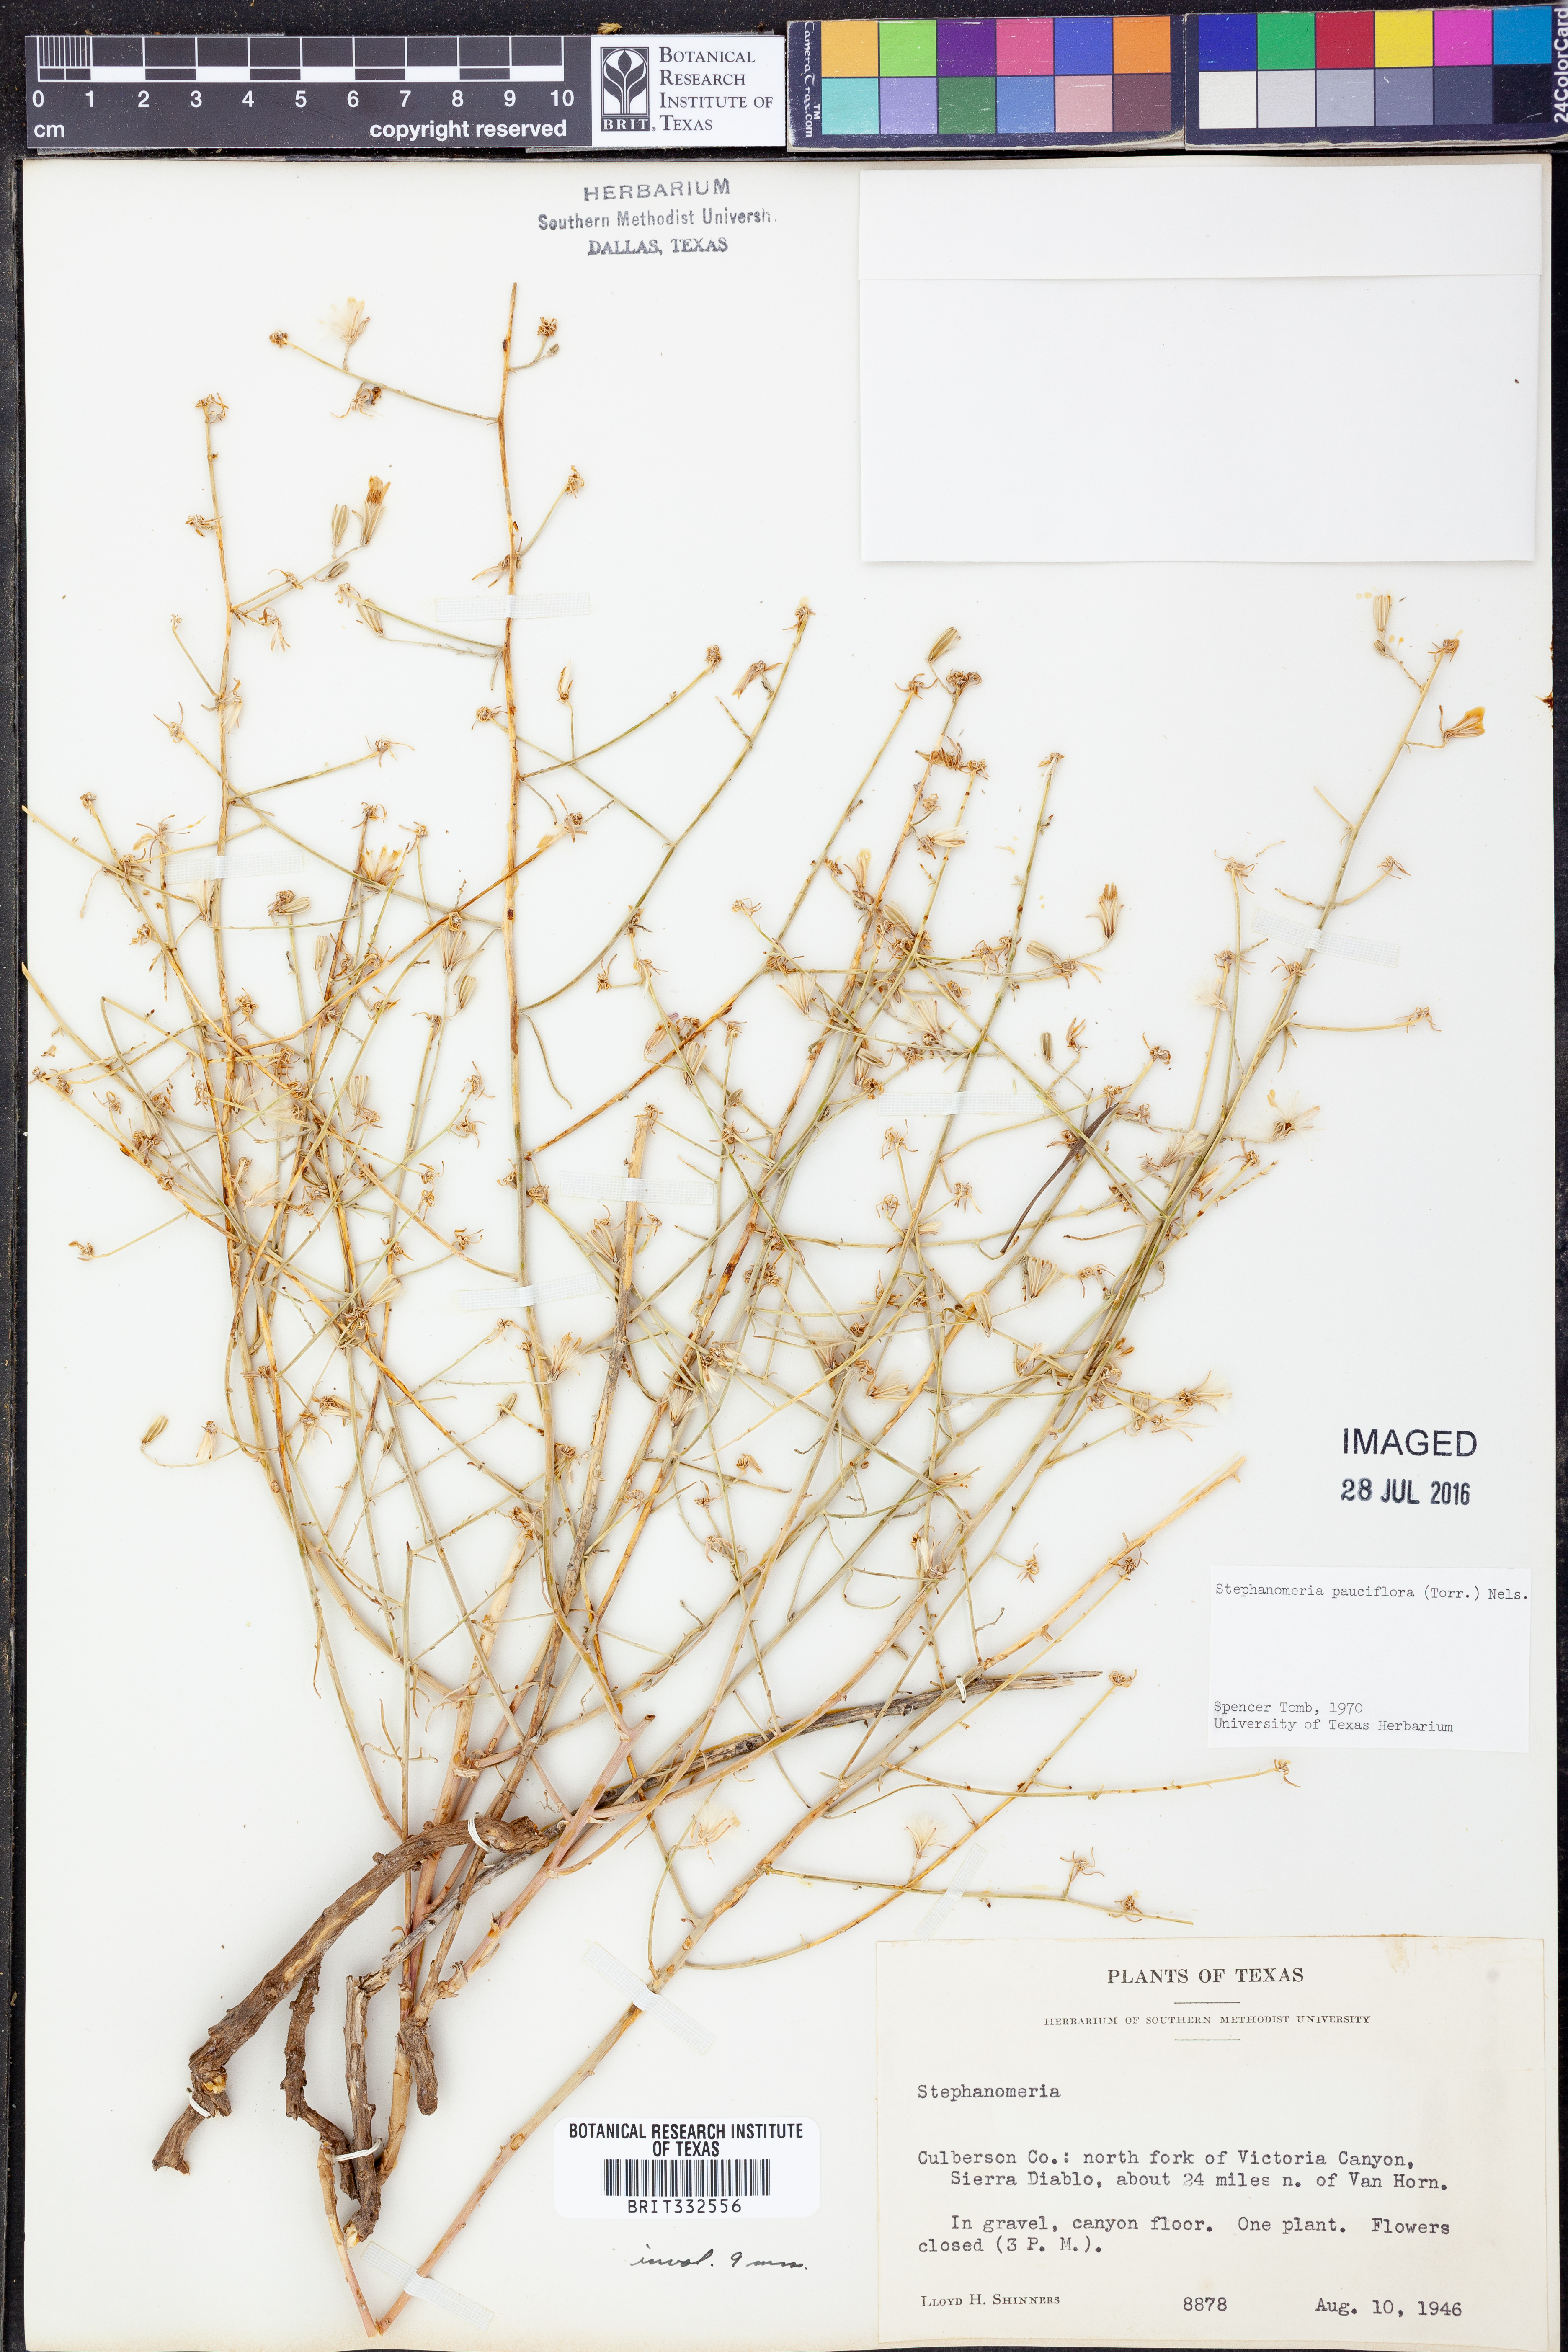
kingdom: Plantae
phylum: Tracheophyta
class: Magnoliopsida
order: Asterales
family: Asteraceae
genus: Stephanomeria
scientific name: Stephanomeria pauciflora
